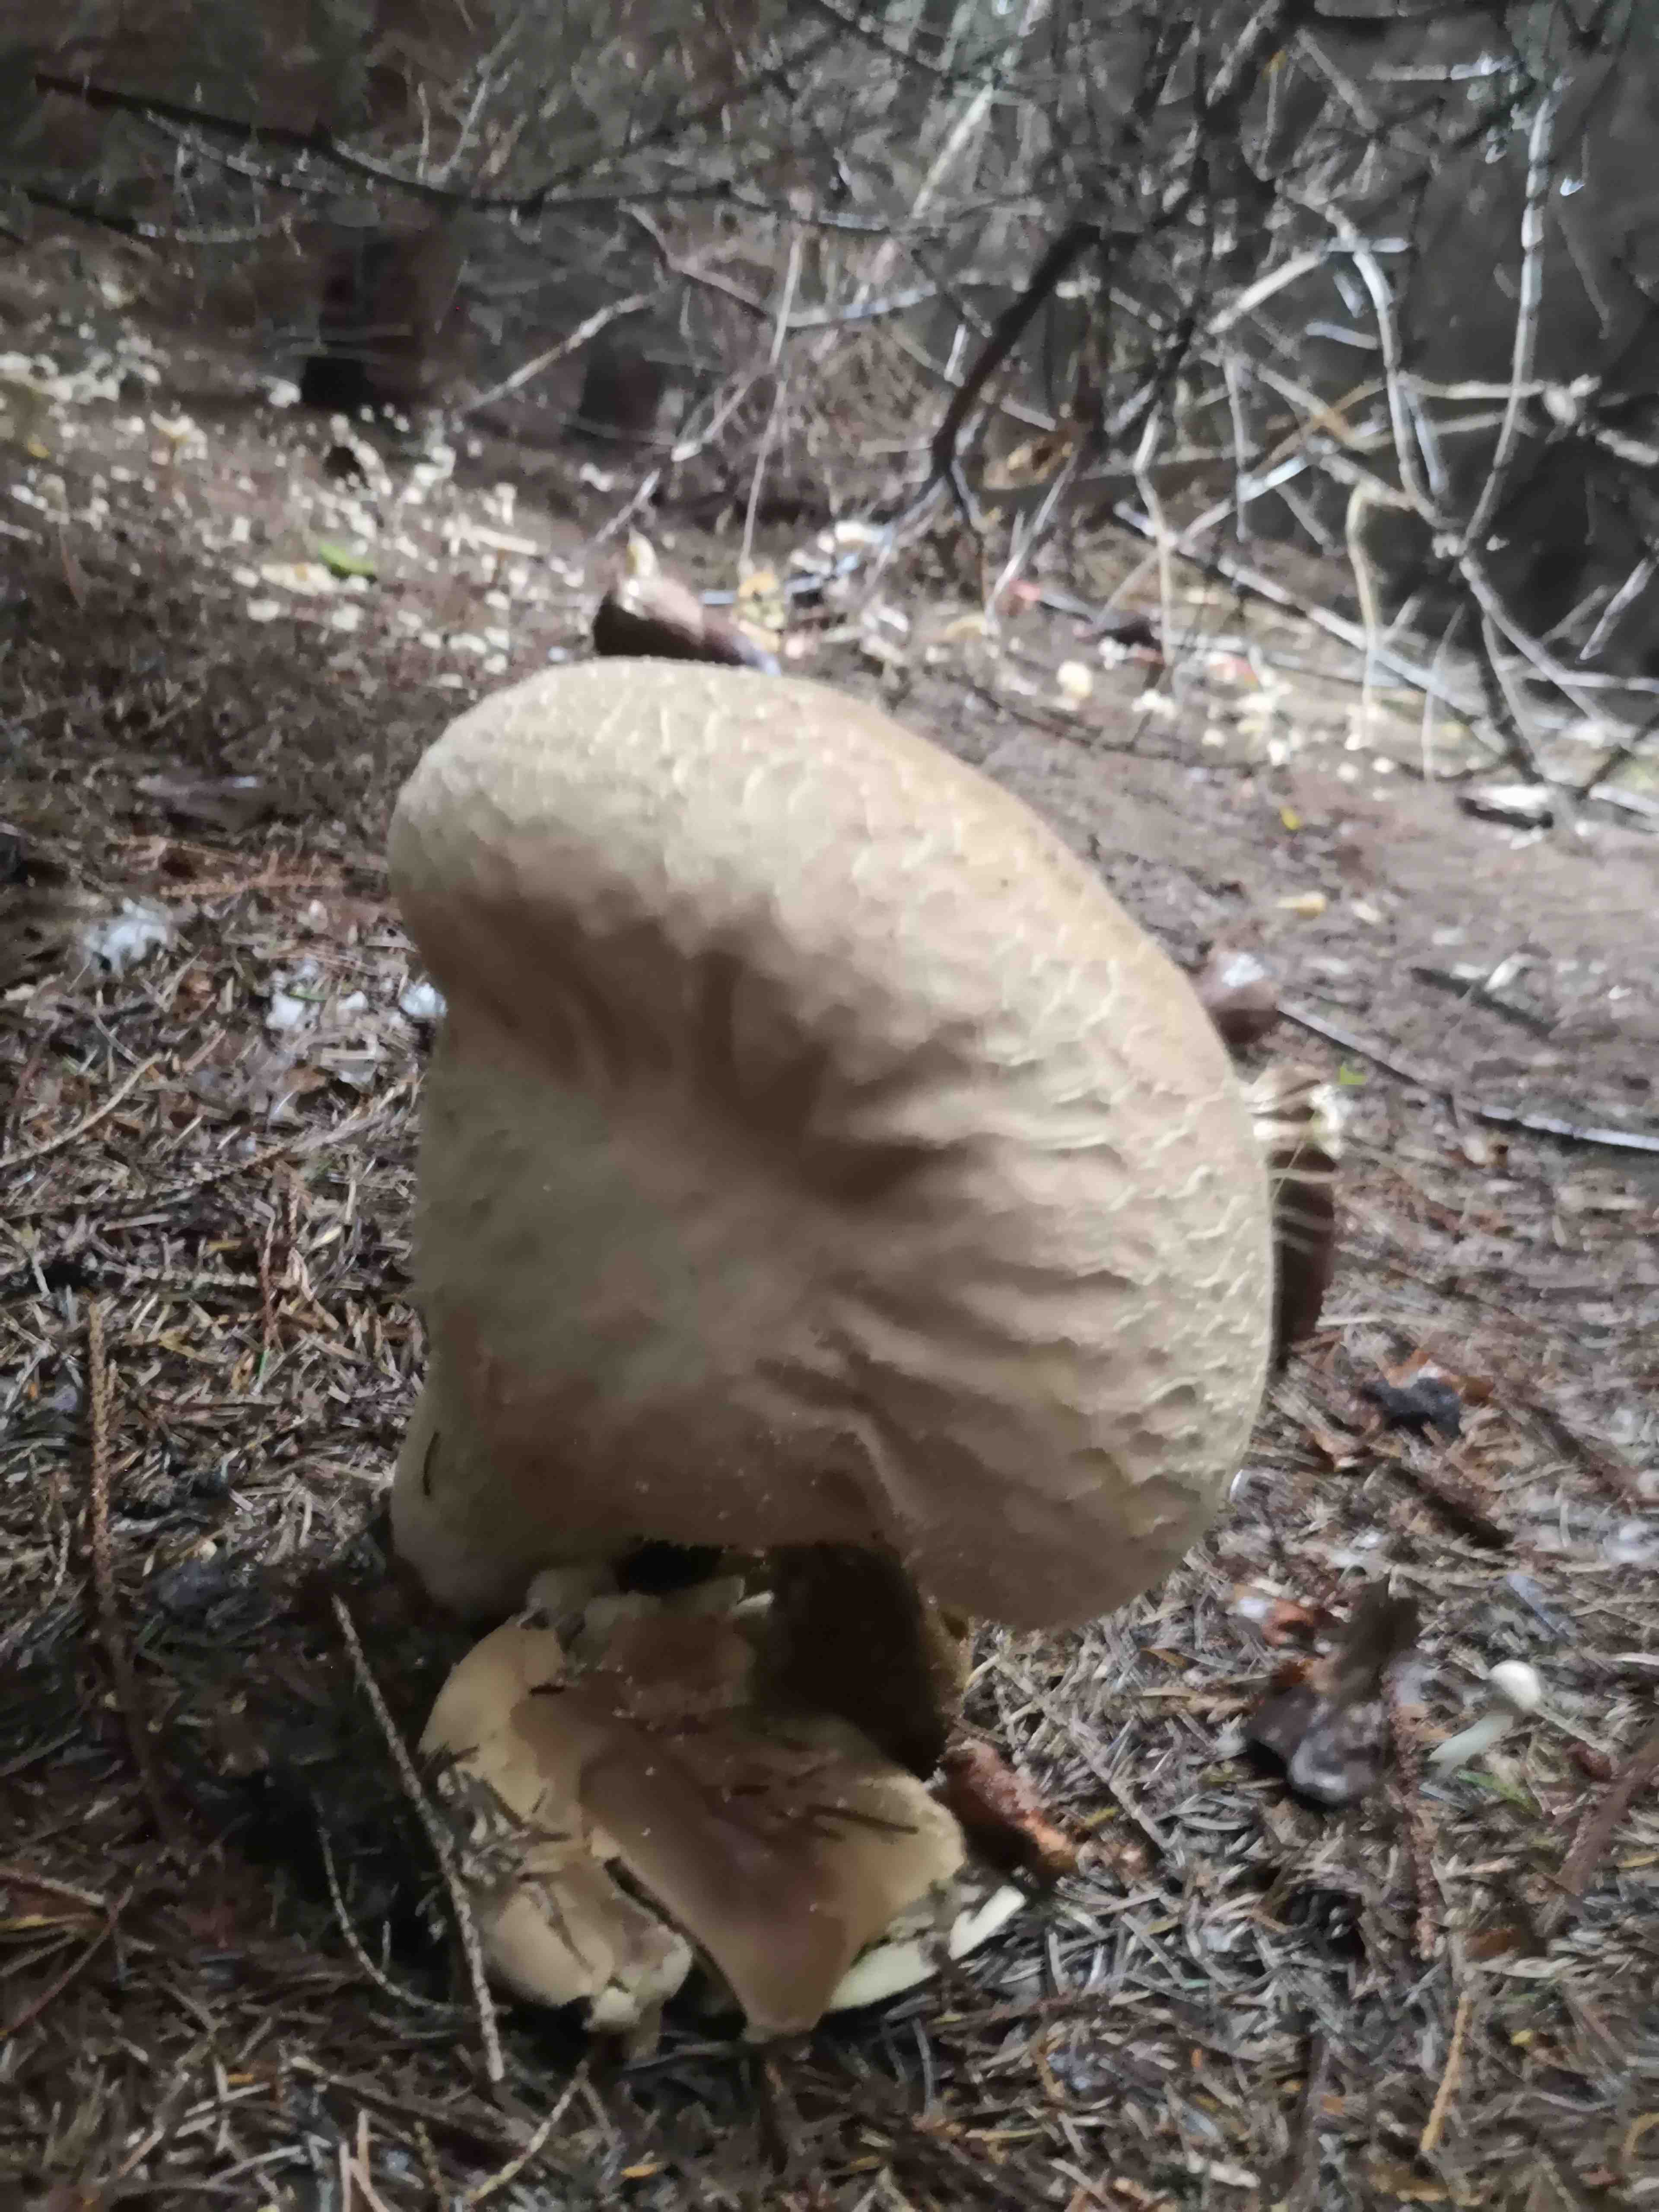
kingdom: Fungi
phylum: Basidiomycota
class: Agaricomycetes
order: Agaricales
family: Lycoperdaceae
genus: Lycoperdon
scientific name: Lycoperdon excipuliforme
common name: højstokket støvbold
